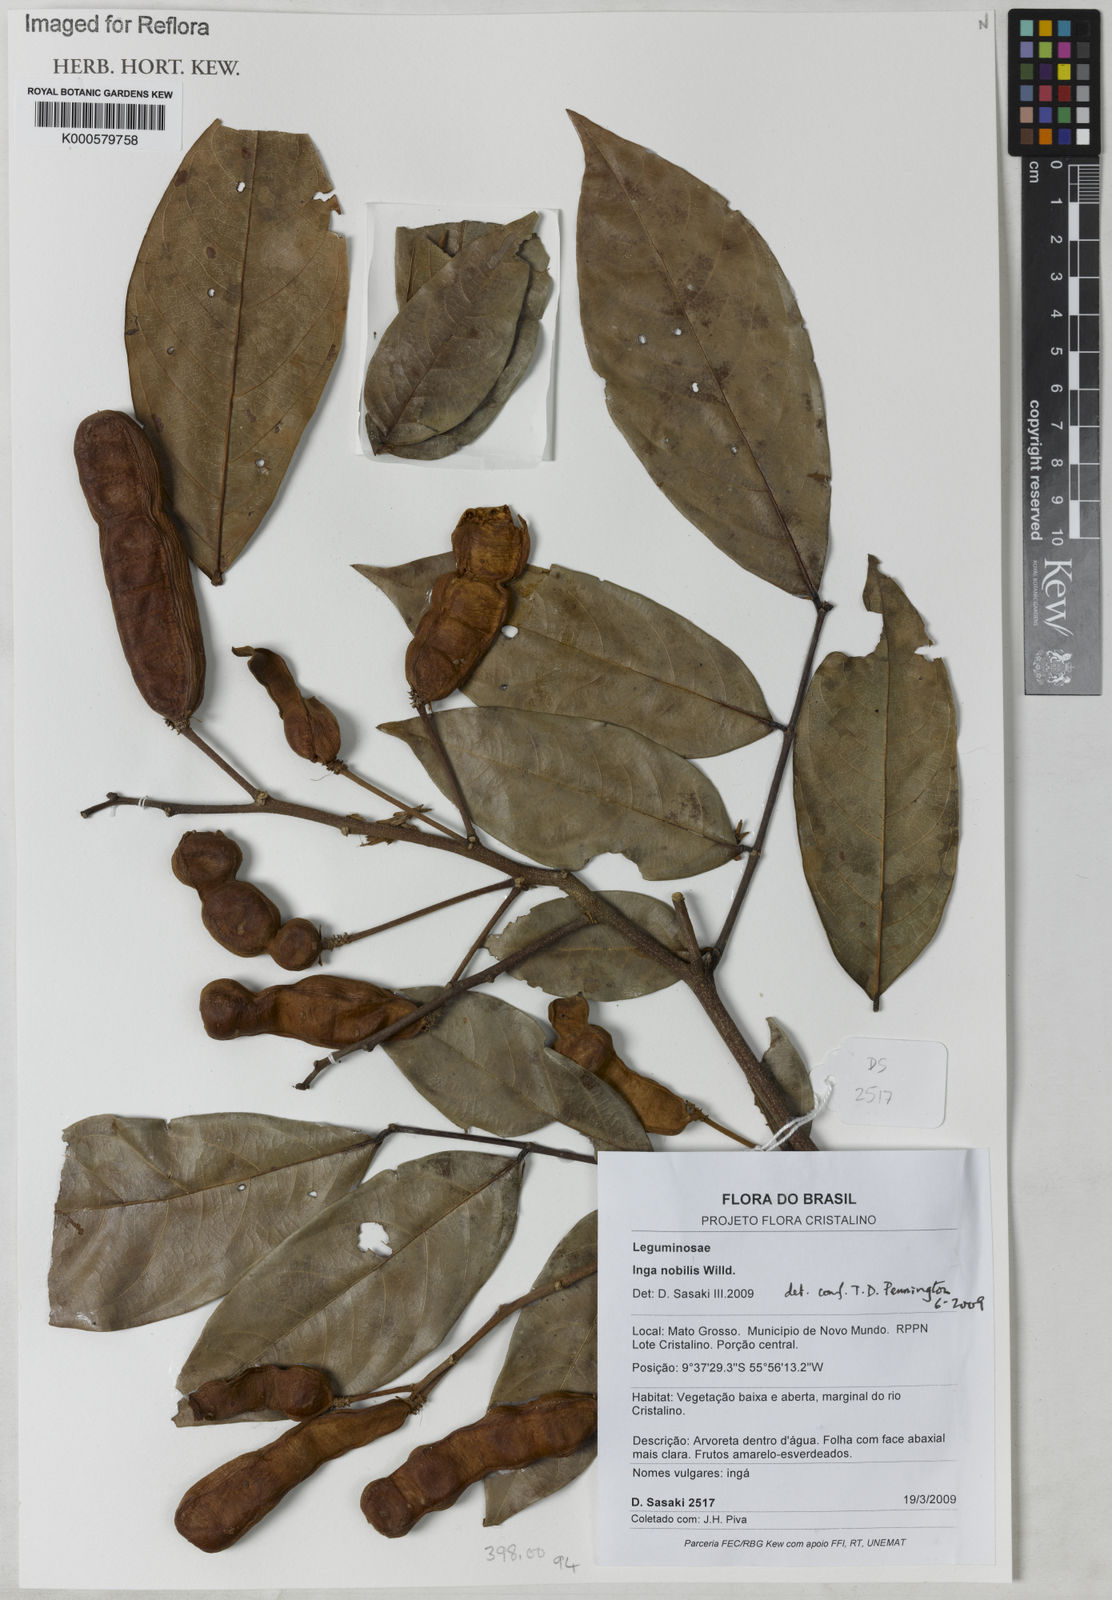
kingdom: Plantae
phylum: Tracheophyta
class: Magnoliopsida
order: Fabales
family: Fabaceae
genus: Inga
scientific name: Inga nobilis
